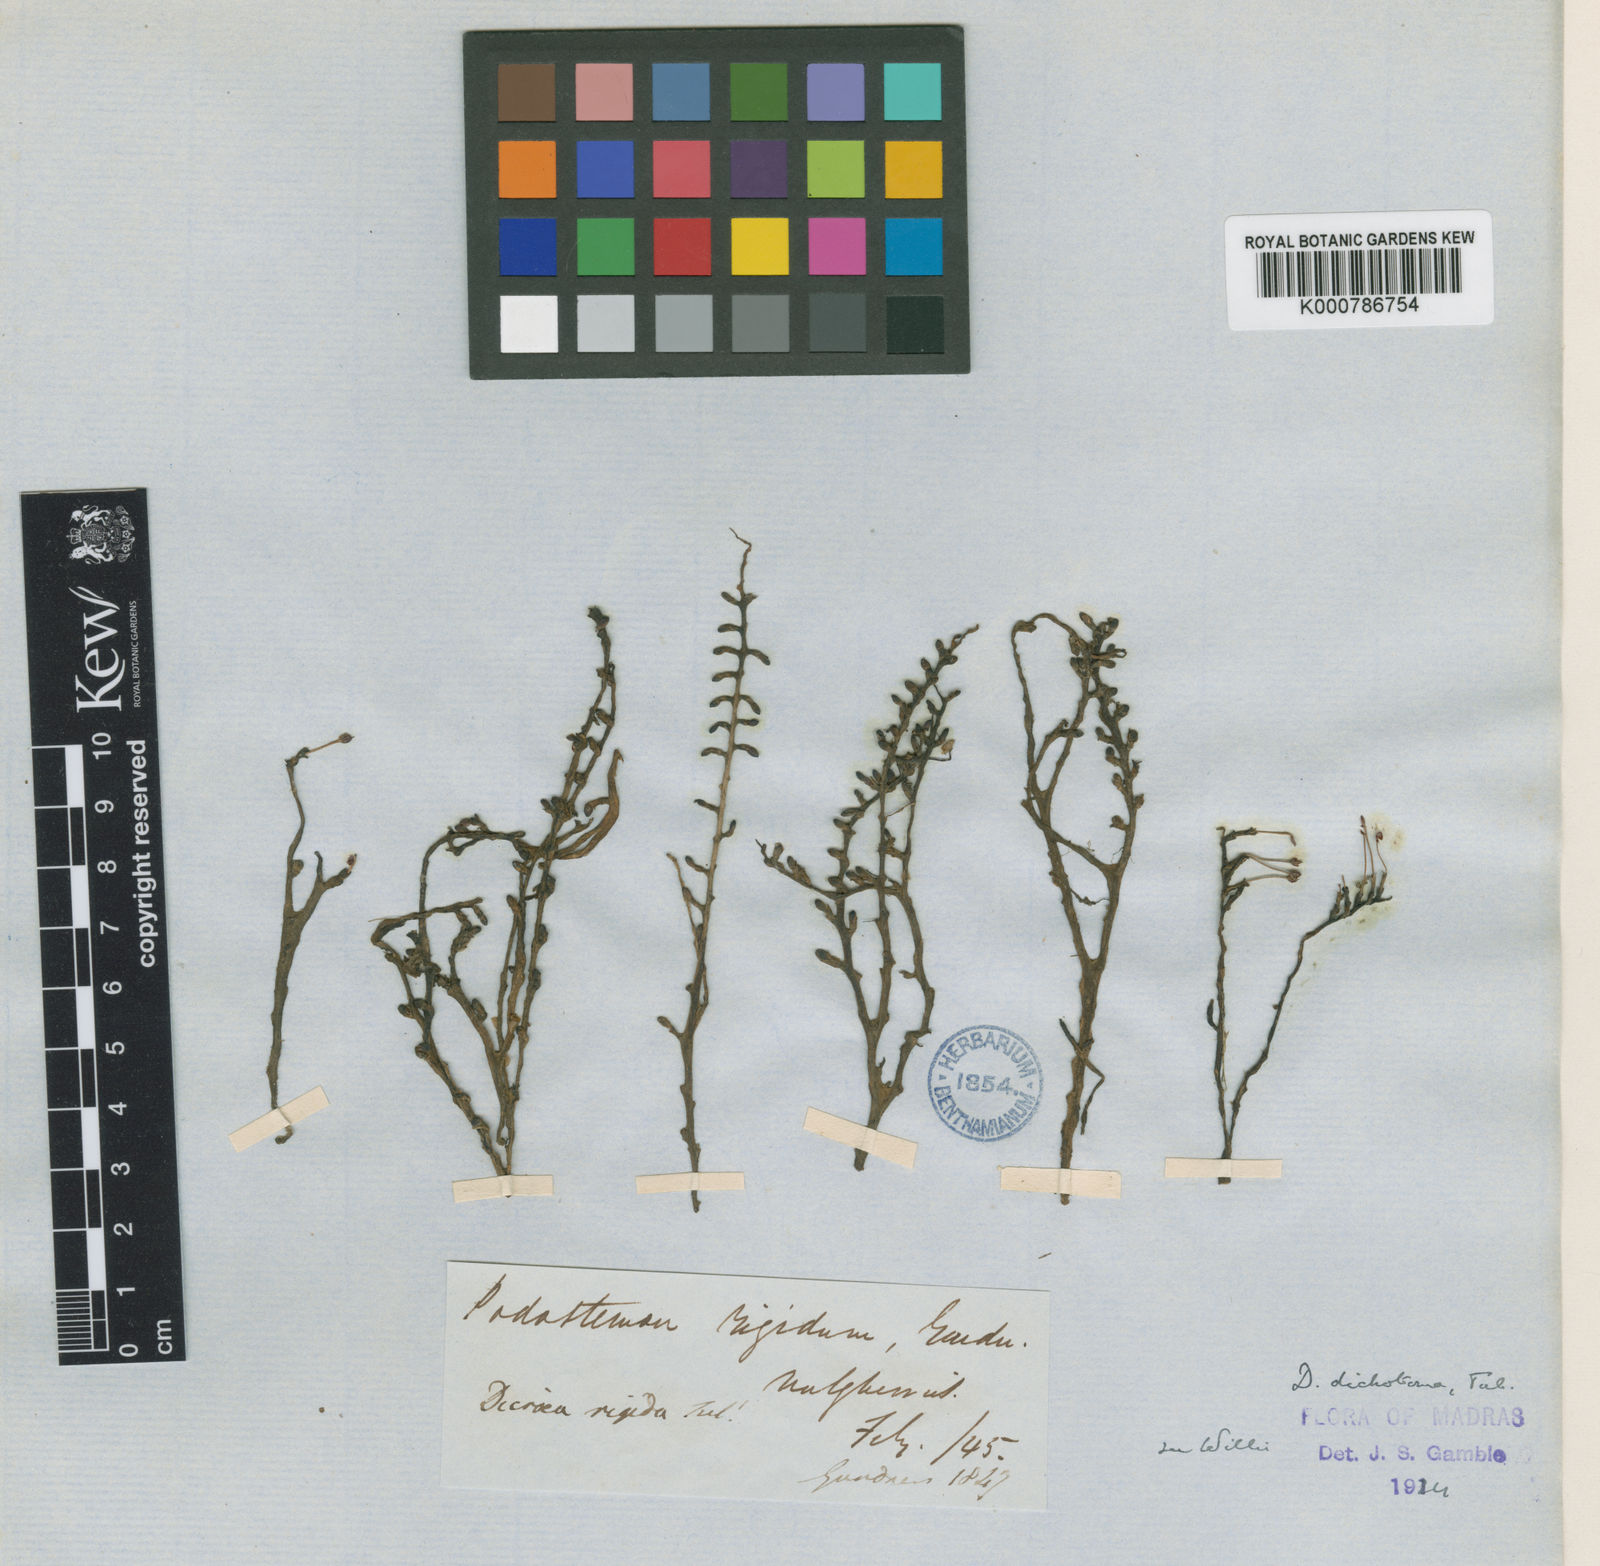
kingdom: Plantae
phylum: Tracheophyta
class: Magnoliopsida
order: Malpighiales
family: Podostemaceae
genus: Polypleurum
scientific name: Polypleurum dichotomum
